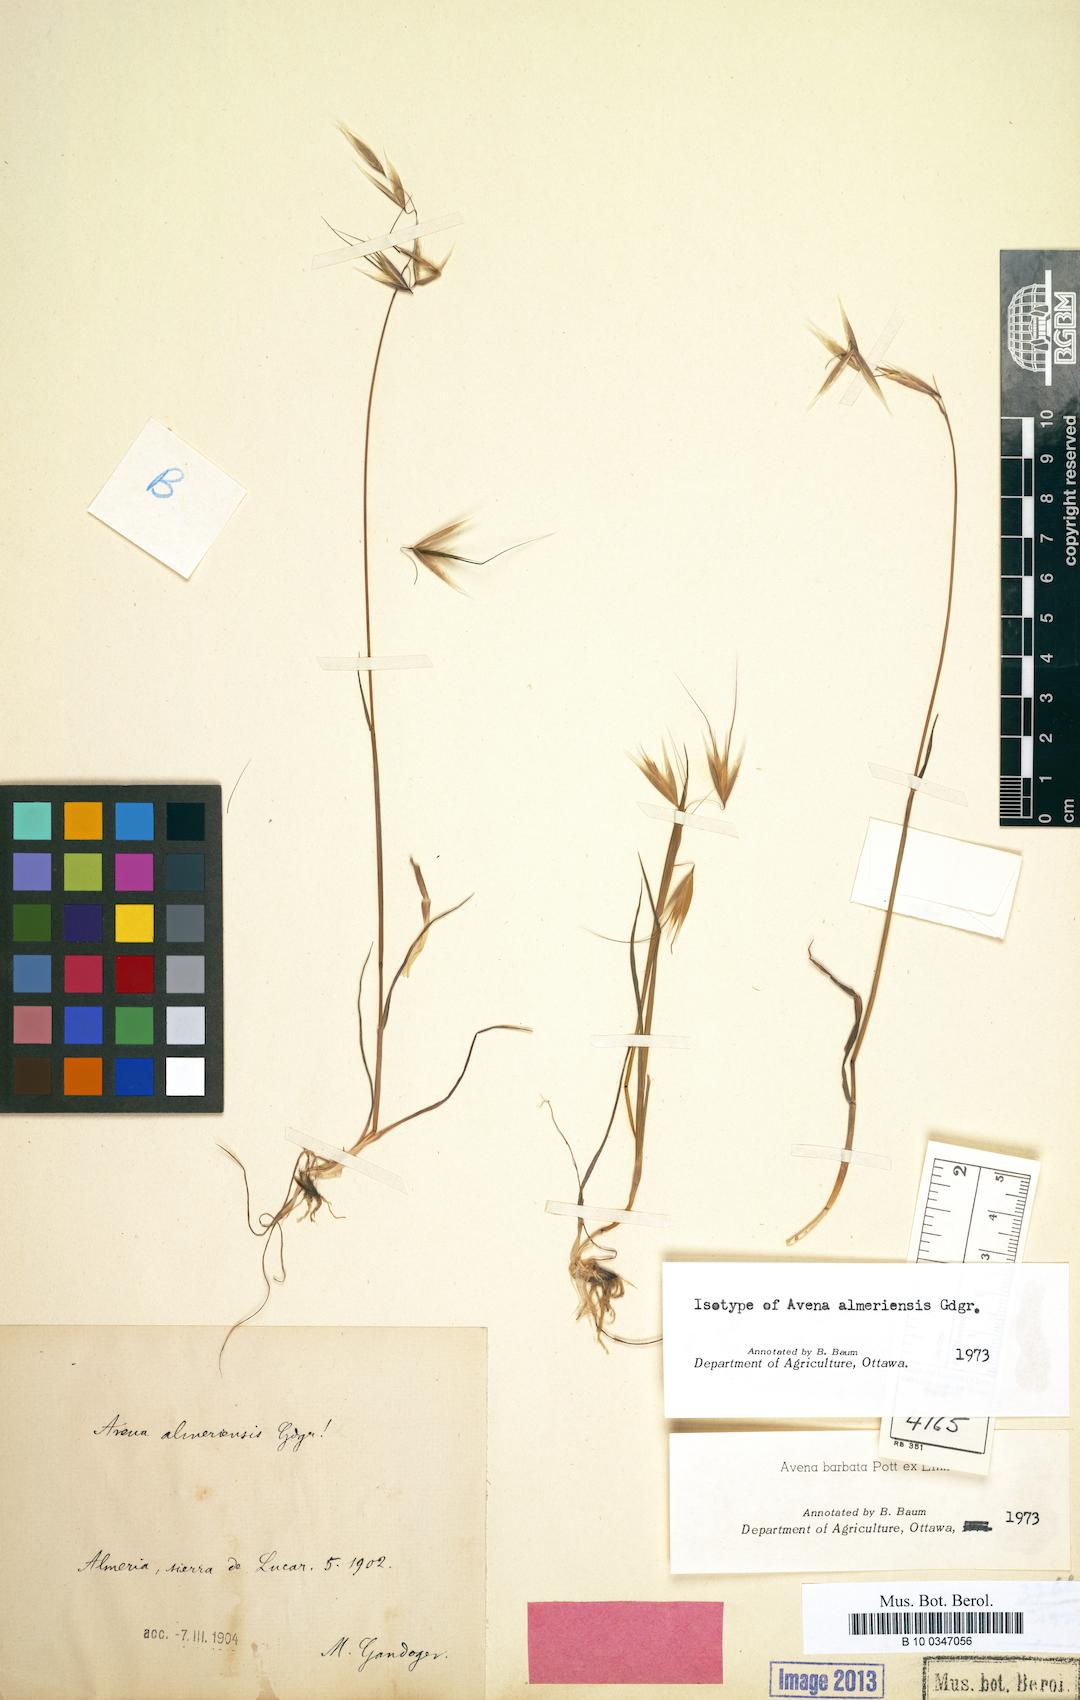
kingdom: Plantae
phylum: Tracheophyta
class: Liliopsida
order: Poales
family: Poaceae
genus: Avena
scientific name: Avena barbata
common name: Slender oat
